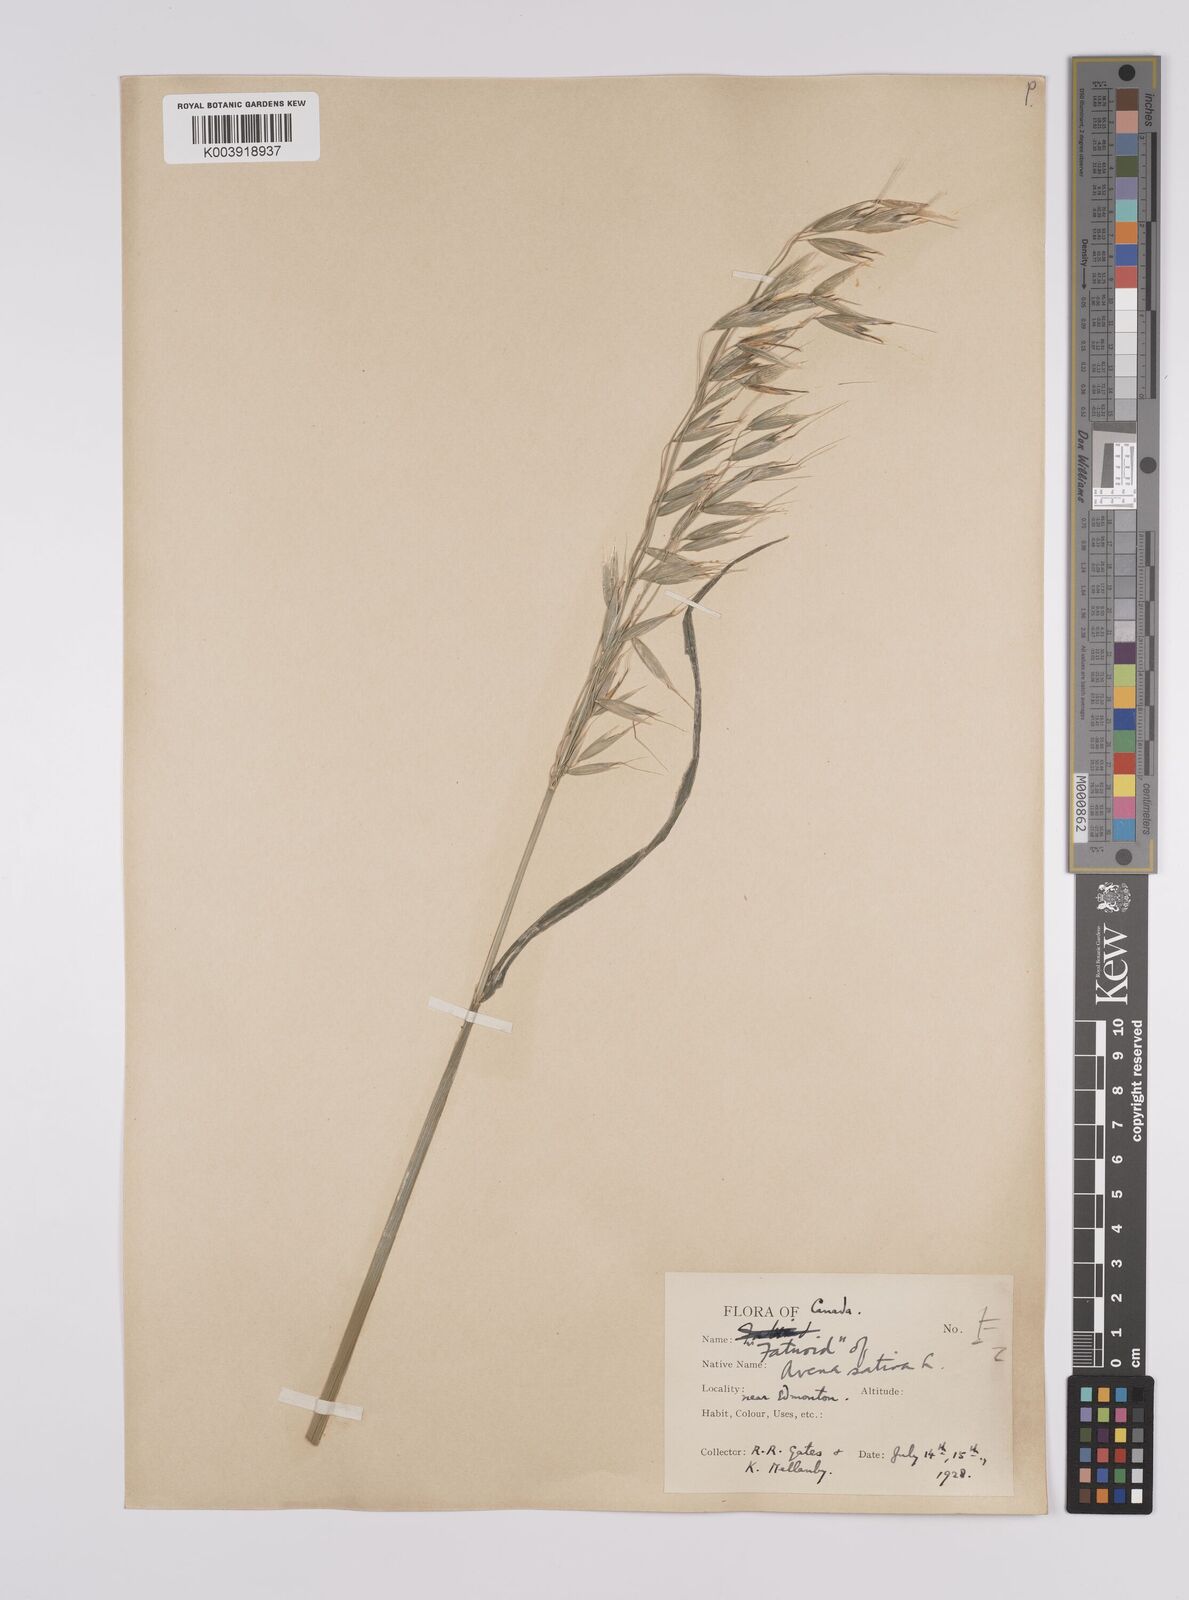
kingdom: Plantae
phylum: Tracheophyta
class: Liliopsida
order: Poales
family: Poaceae
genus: Avena
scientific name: Avena fatua
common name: Wild oat
